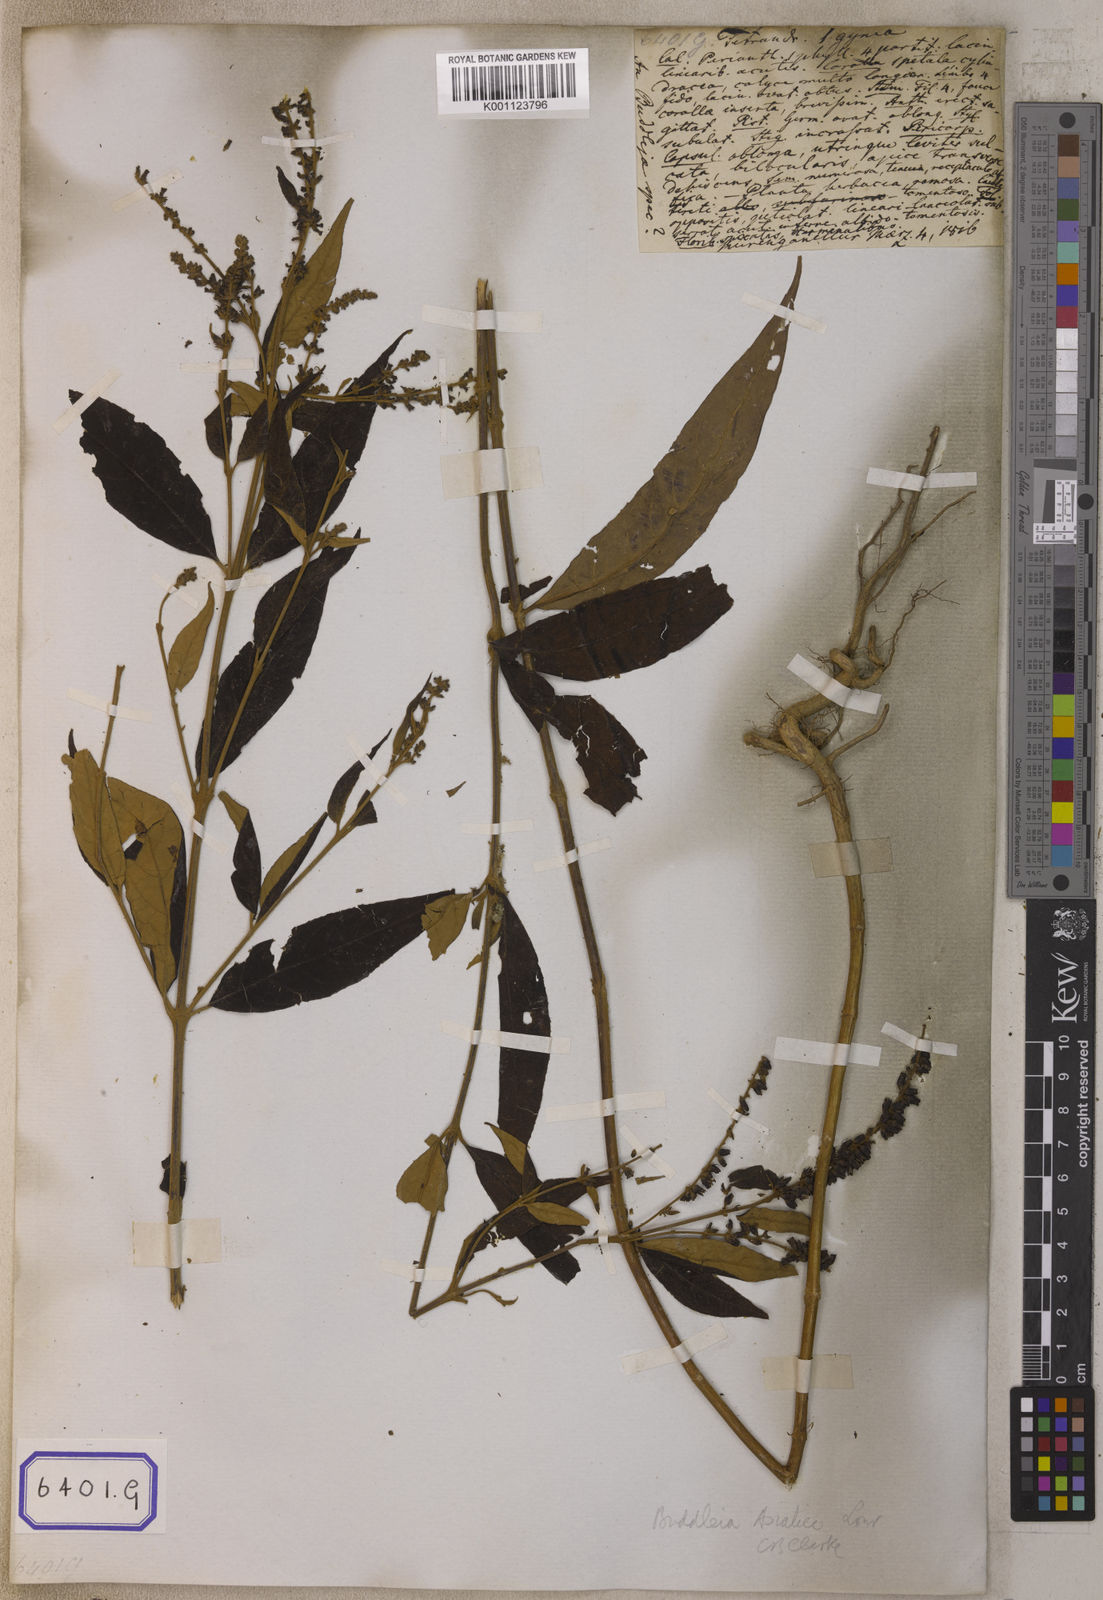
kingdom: Plantae
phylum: Tracheophyta
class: Magnoliopsida
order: Lamiales
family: Scrophulariaceae
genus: Buddleja
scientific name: Buddleja
